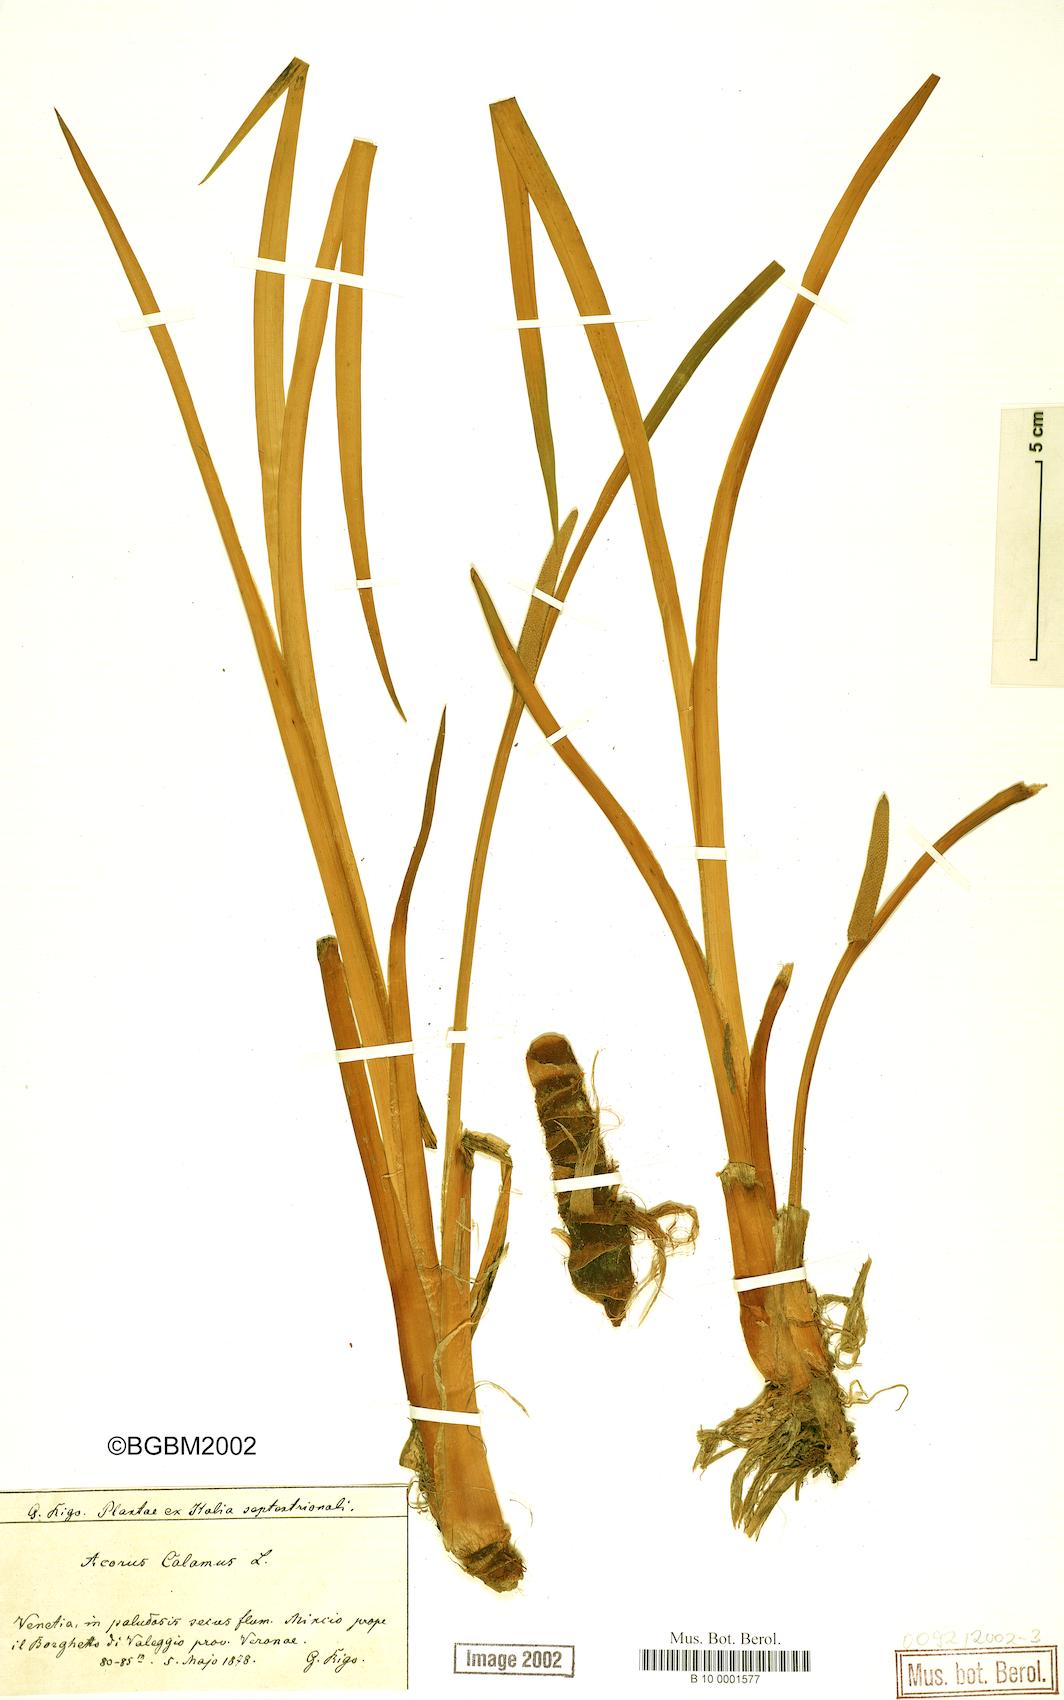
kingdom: Plantae
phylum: Tracheophyta
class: Liliopsida
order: Acorales
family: Acoraceae
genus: Acorus
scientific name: Acorus calamus
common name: Sweet-flag
